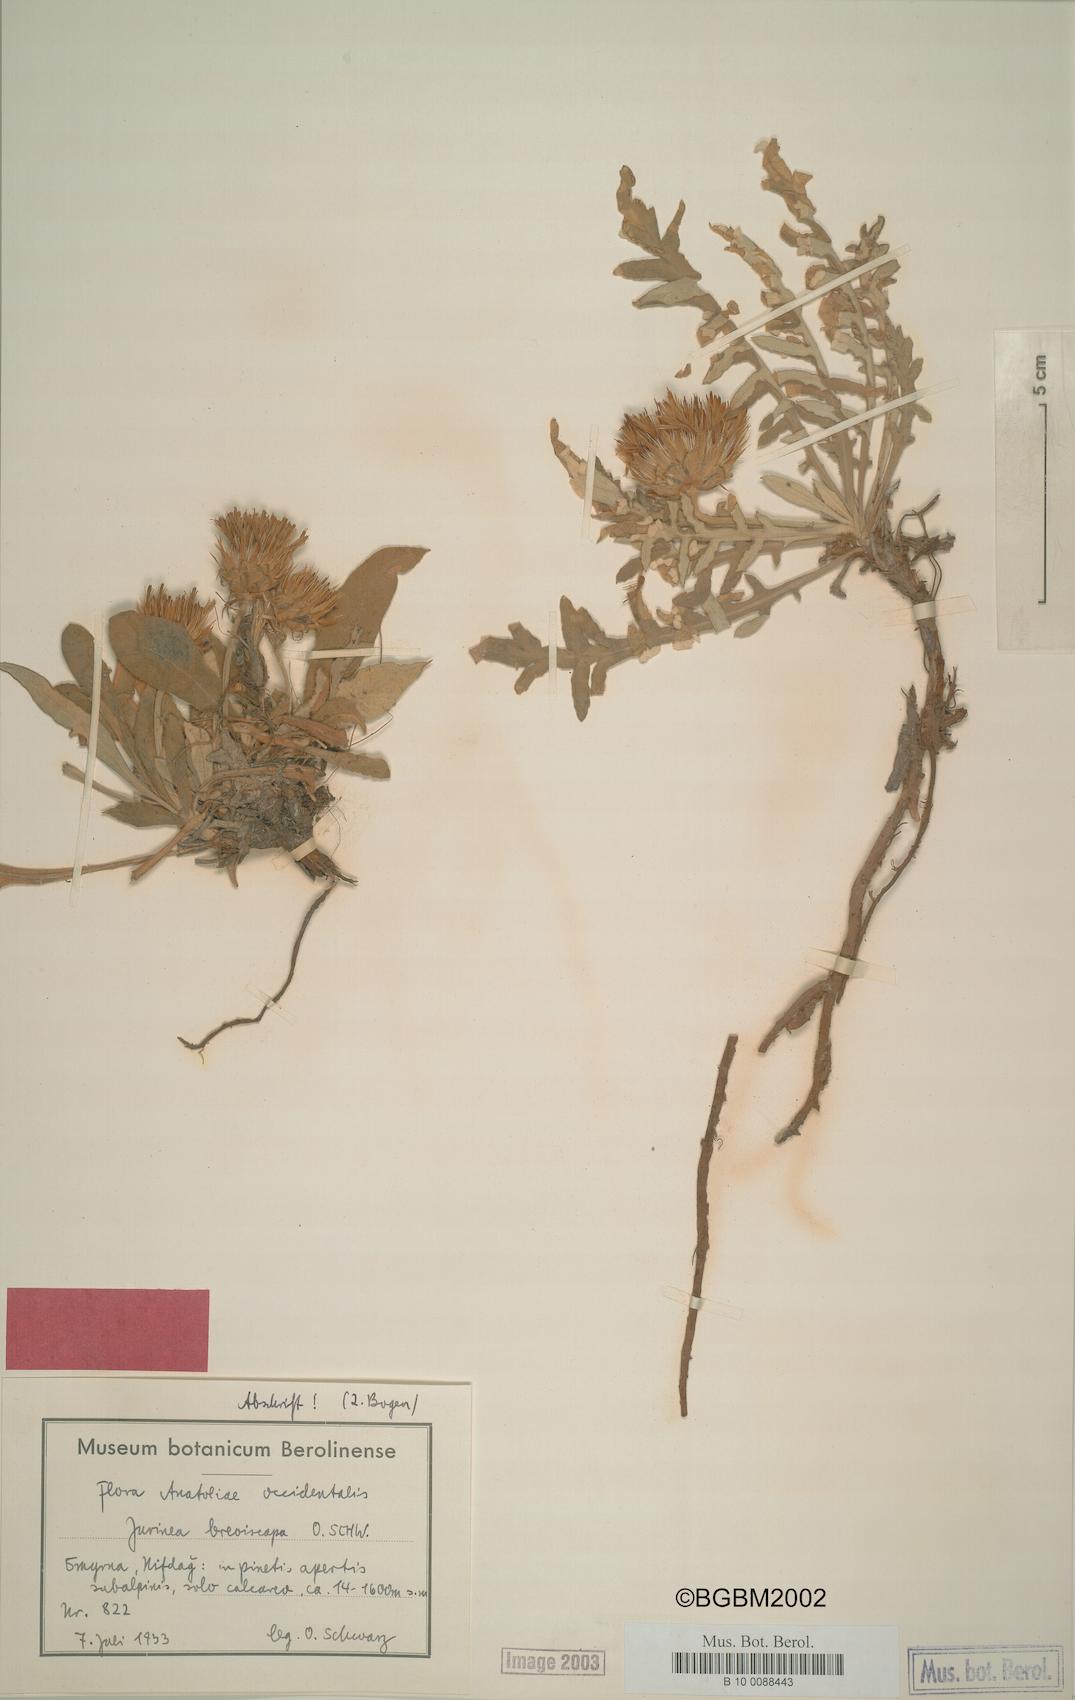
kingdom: Plantae
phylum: Tracheophyta
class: Magnoliopsida
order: Asterales
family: Asteraceae
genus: Jurinea
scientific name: Jurinea breviscapa
